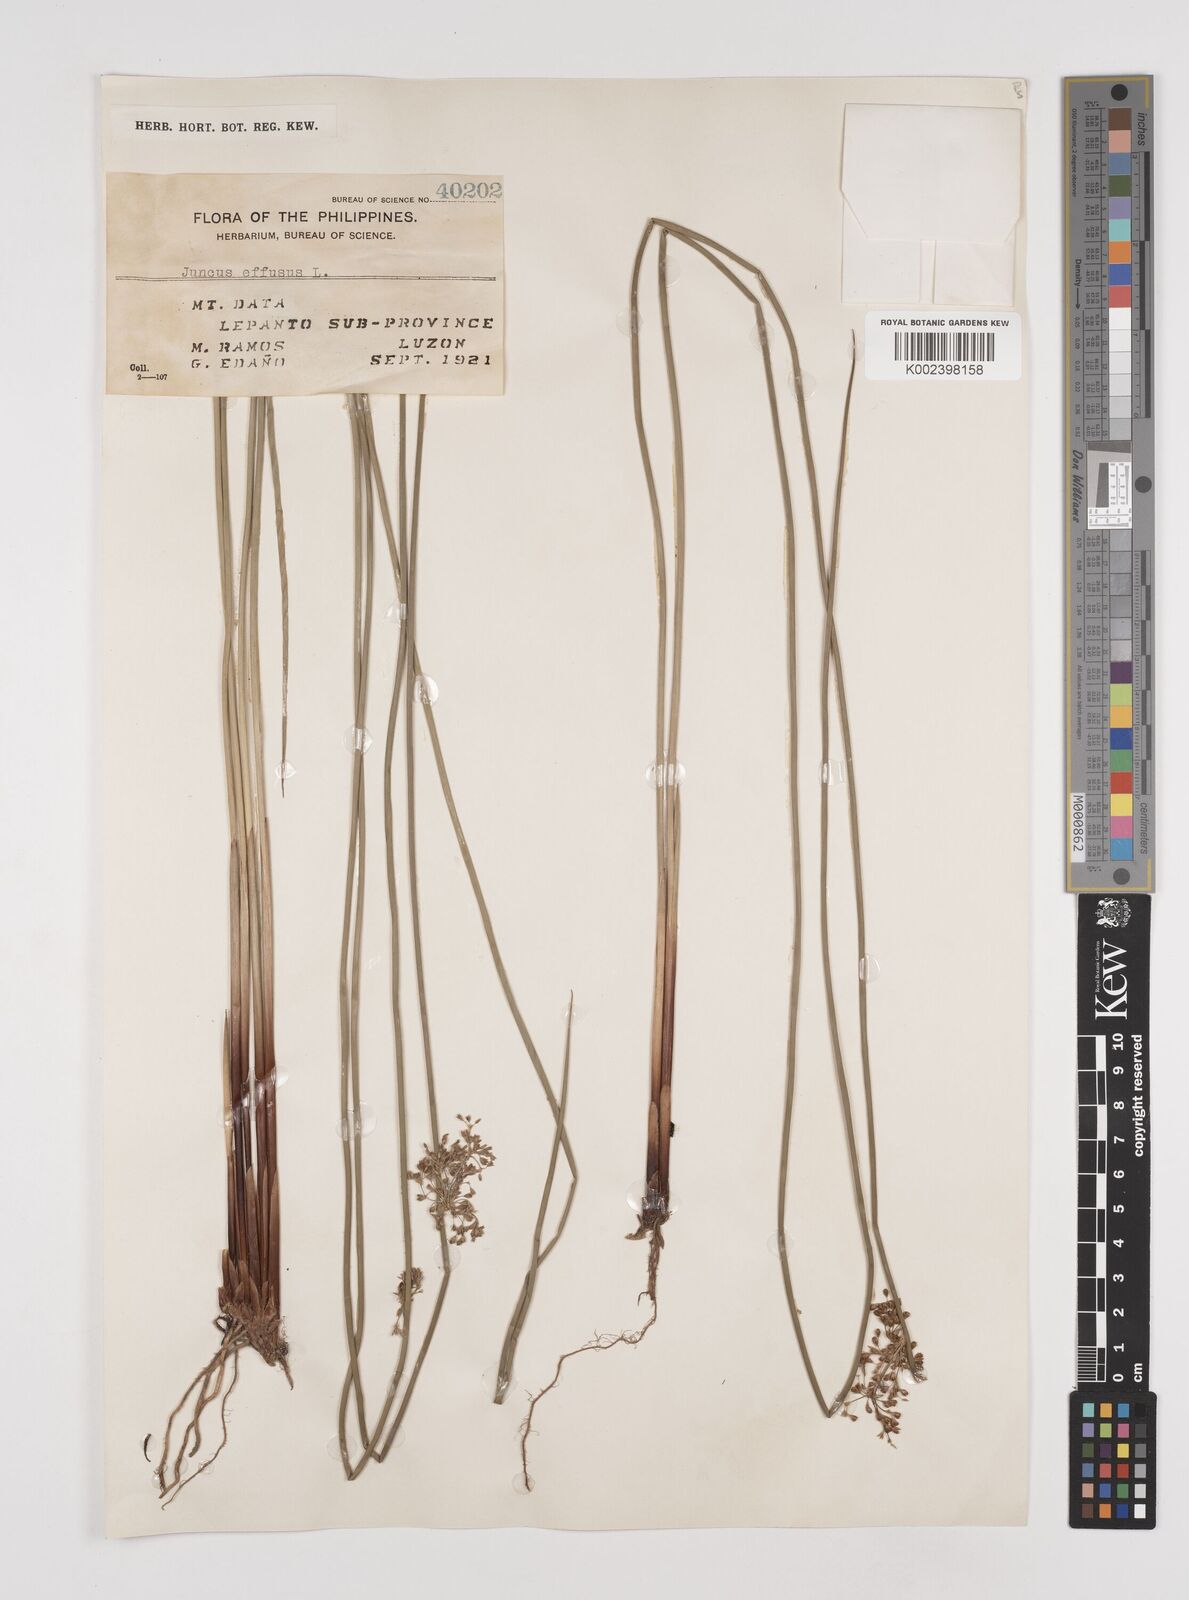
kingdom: Plantae
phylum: Tracheophyta
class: Liliopsida
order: Poales
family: Juncaceae
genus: Juncus
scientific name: Juncus decipiens
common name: Lamp rush
